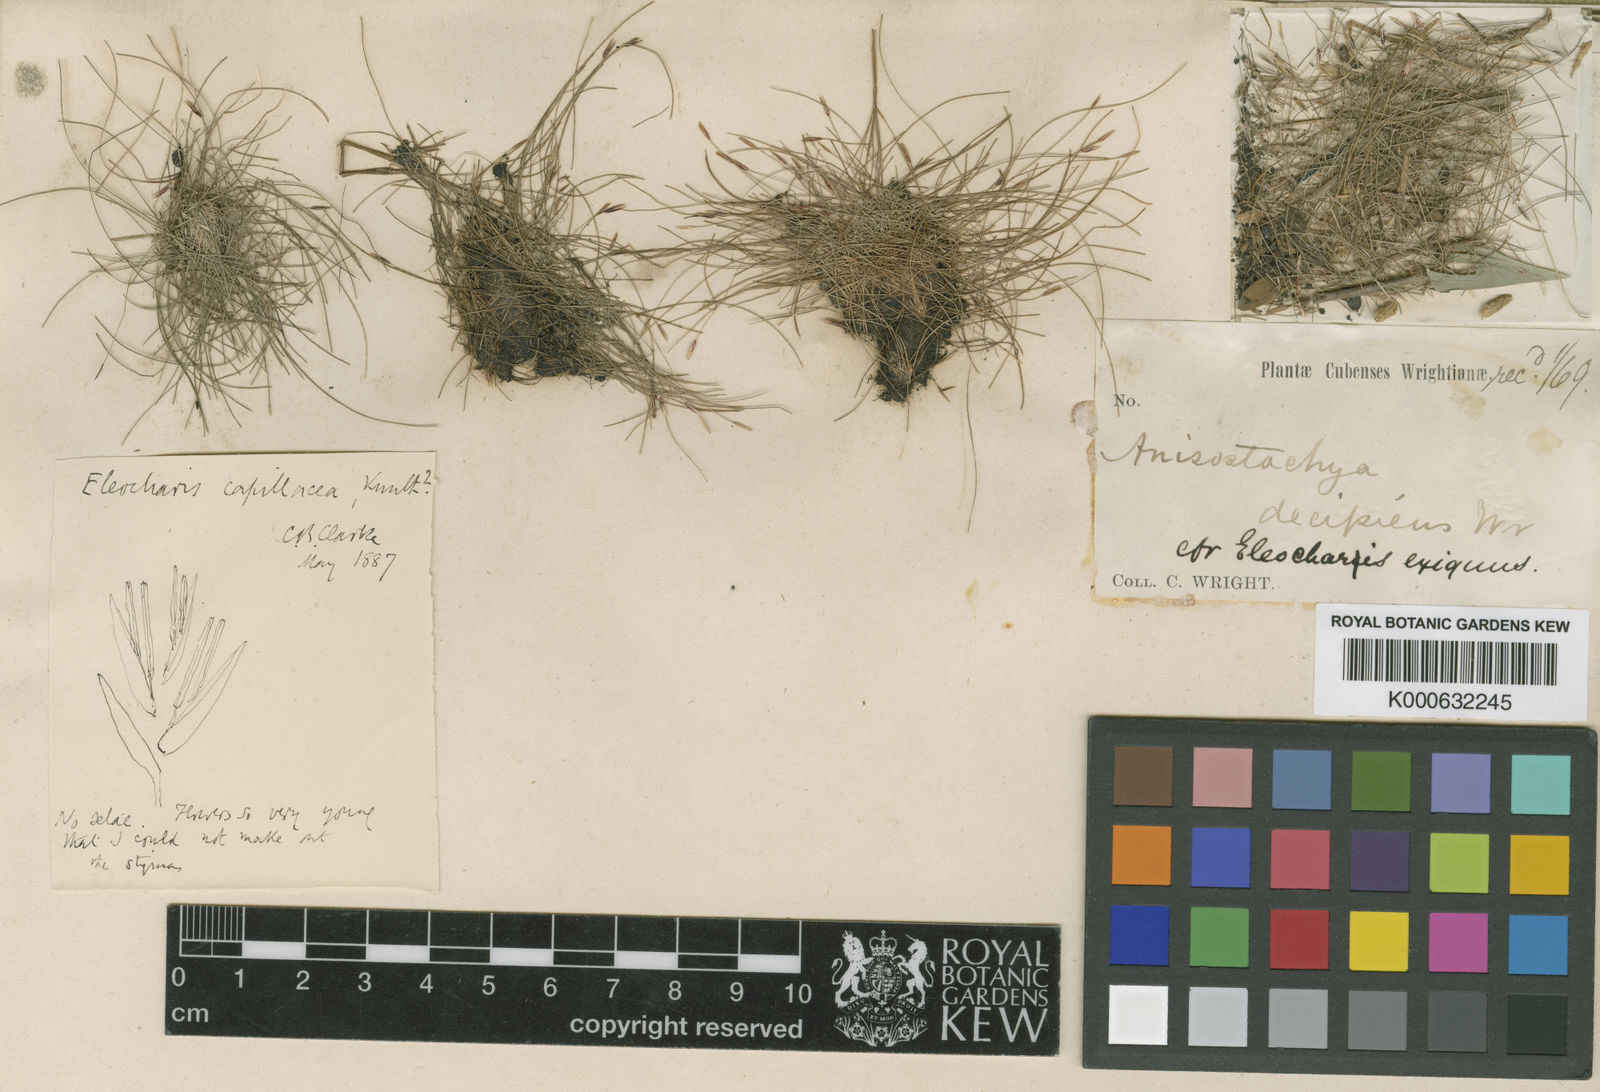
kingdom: Plantae
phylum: Tracheophyta
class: Liliopsida
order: Poales
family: Cyperaceae
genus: Eleocharis
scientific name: Eleocharis capillacea
